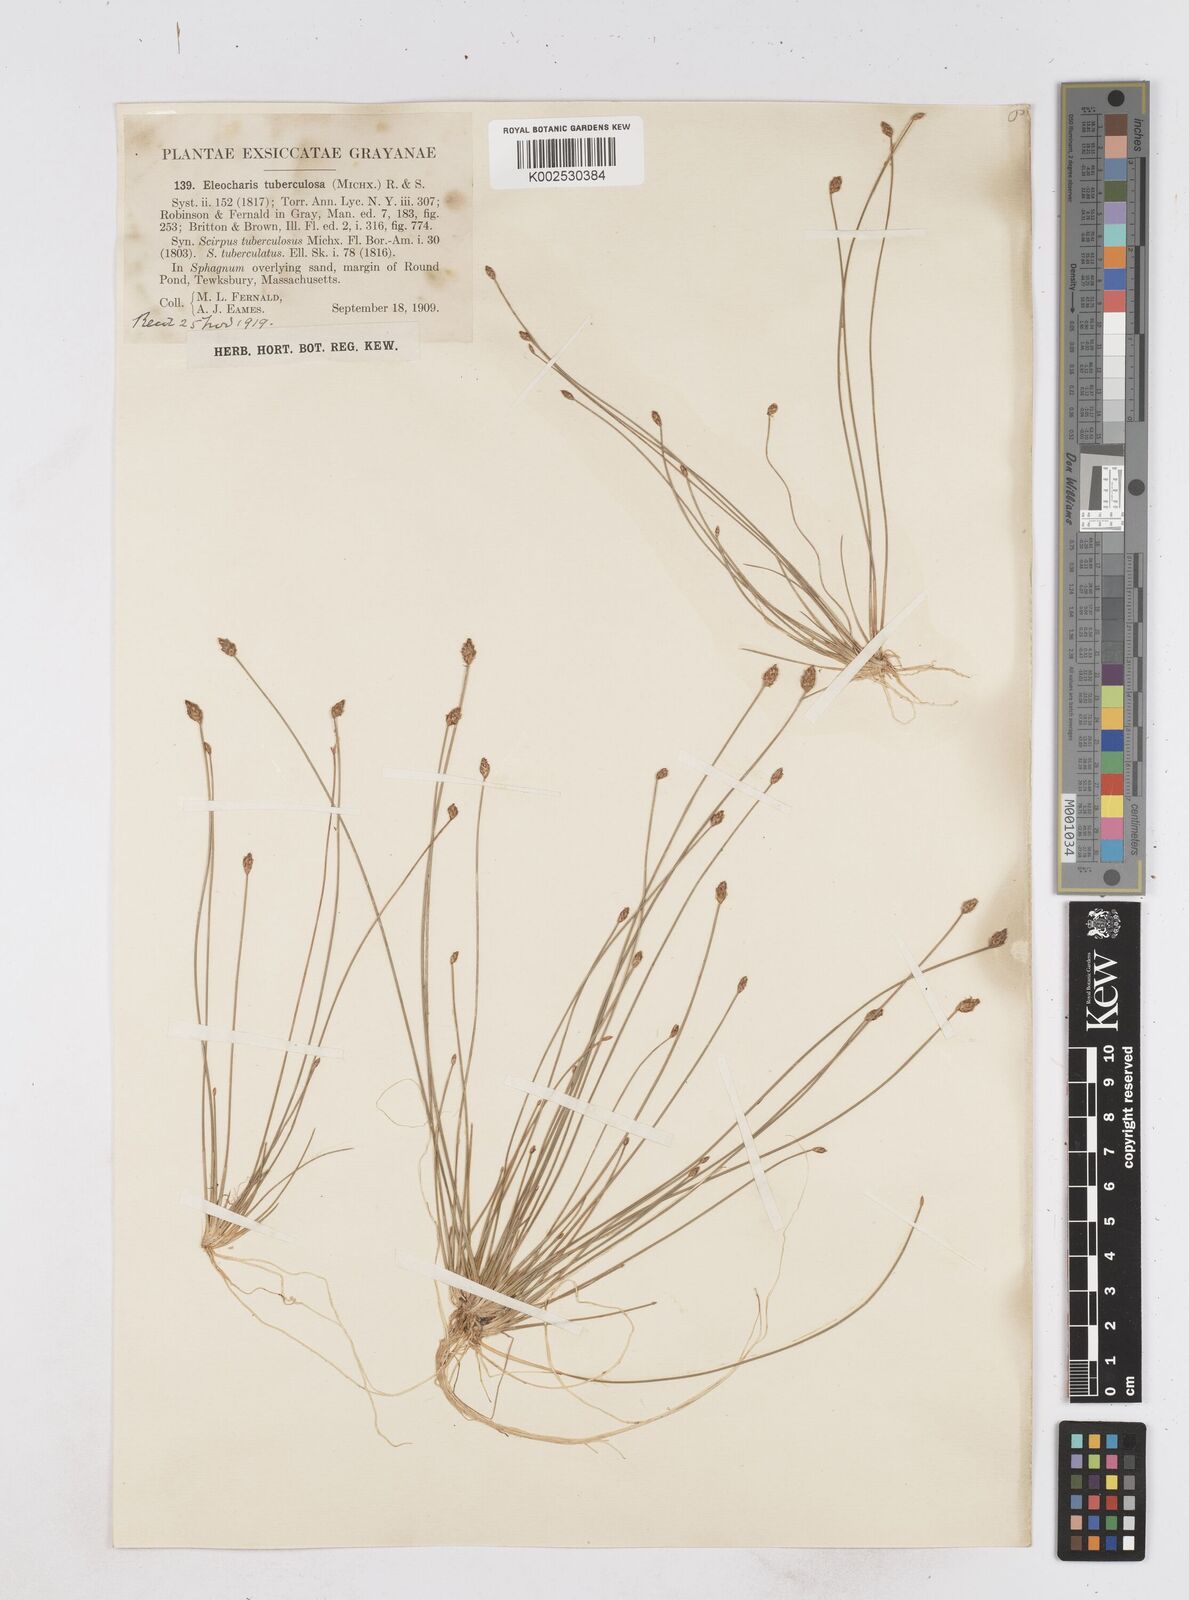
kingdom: Plantae
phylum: Tracheophyta
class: Liliopsida
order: Poales
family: Cyperaceae
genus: Eleocharis
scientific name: Eleocharis tuberculosa
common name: Cone-cup spikerush
